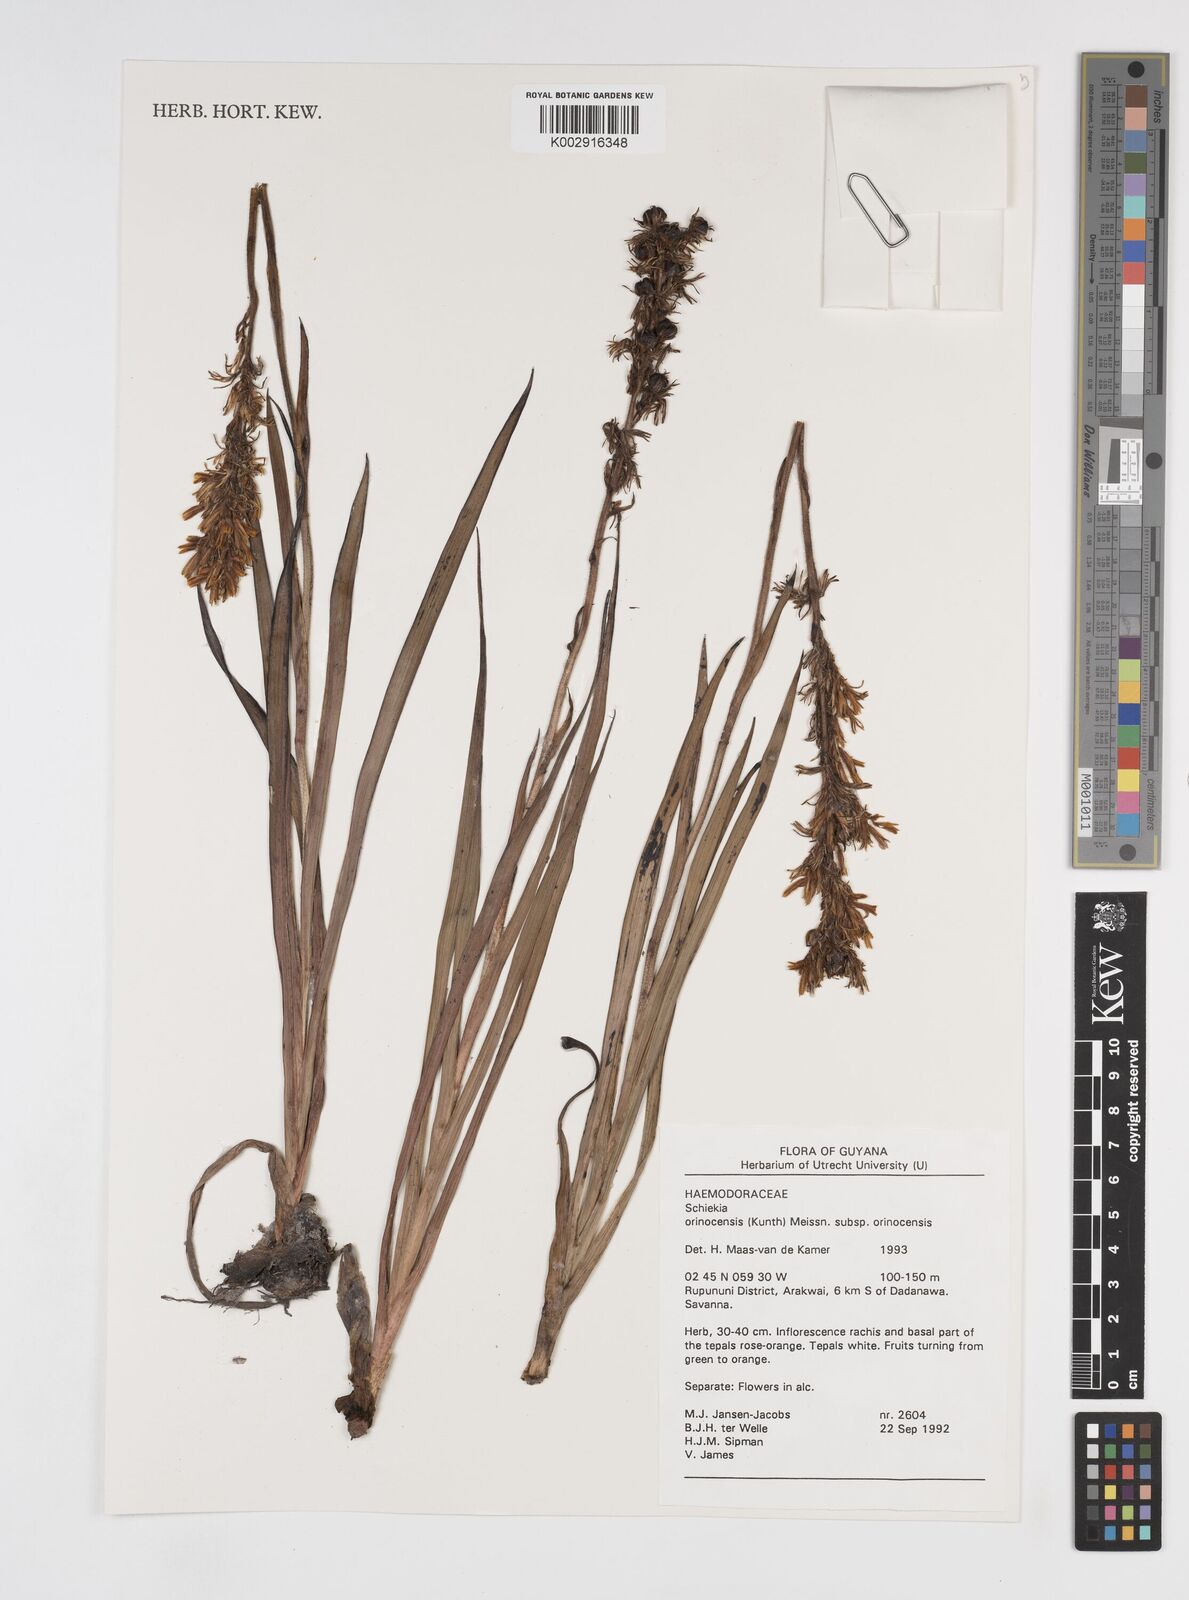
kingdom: Plantae
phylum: Tracheophyta
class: Liliopsida
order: Commelinales
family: Haemodoraceae
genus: Schiekia
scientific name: Schiekia orinocensis
